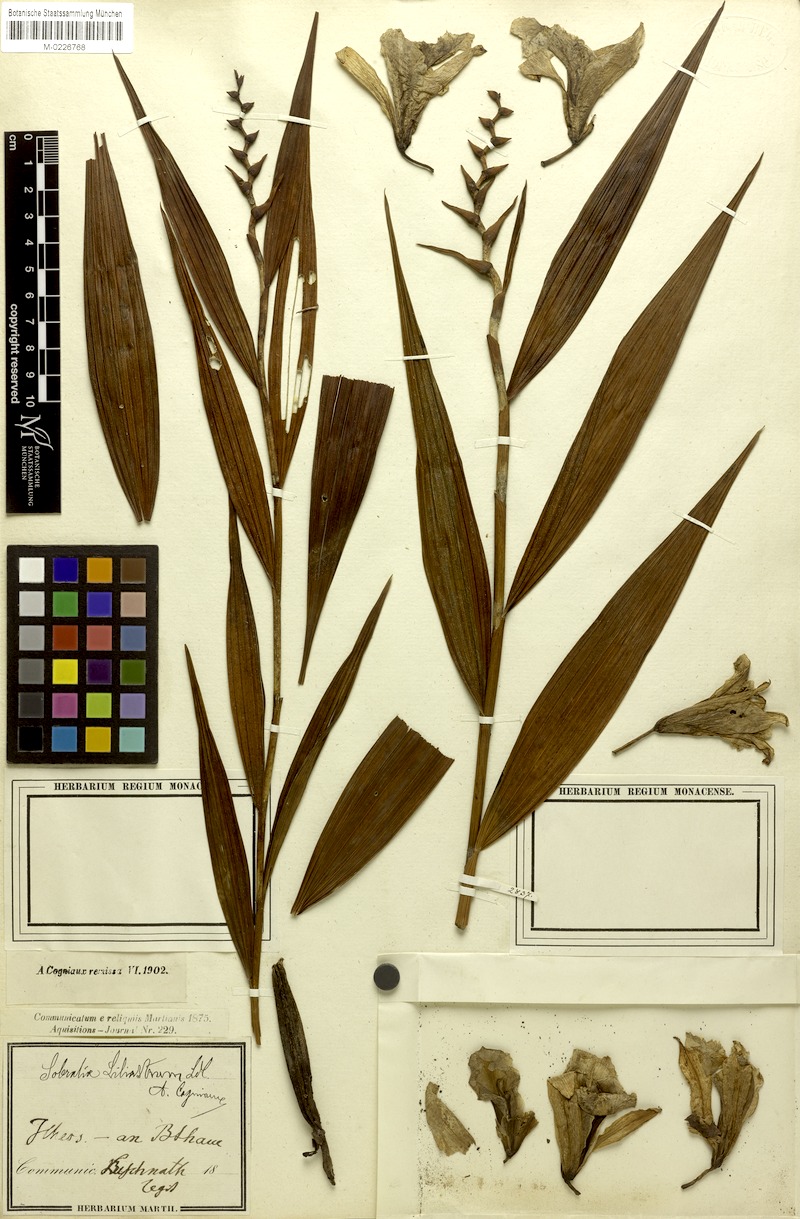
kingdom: Plantae
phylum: Tracheophyta
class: Liliopsida
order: Asparagales
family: Orchidaceae
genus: Sobralia
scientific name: Sobralia liliastrum
